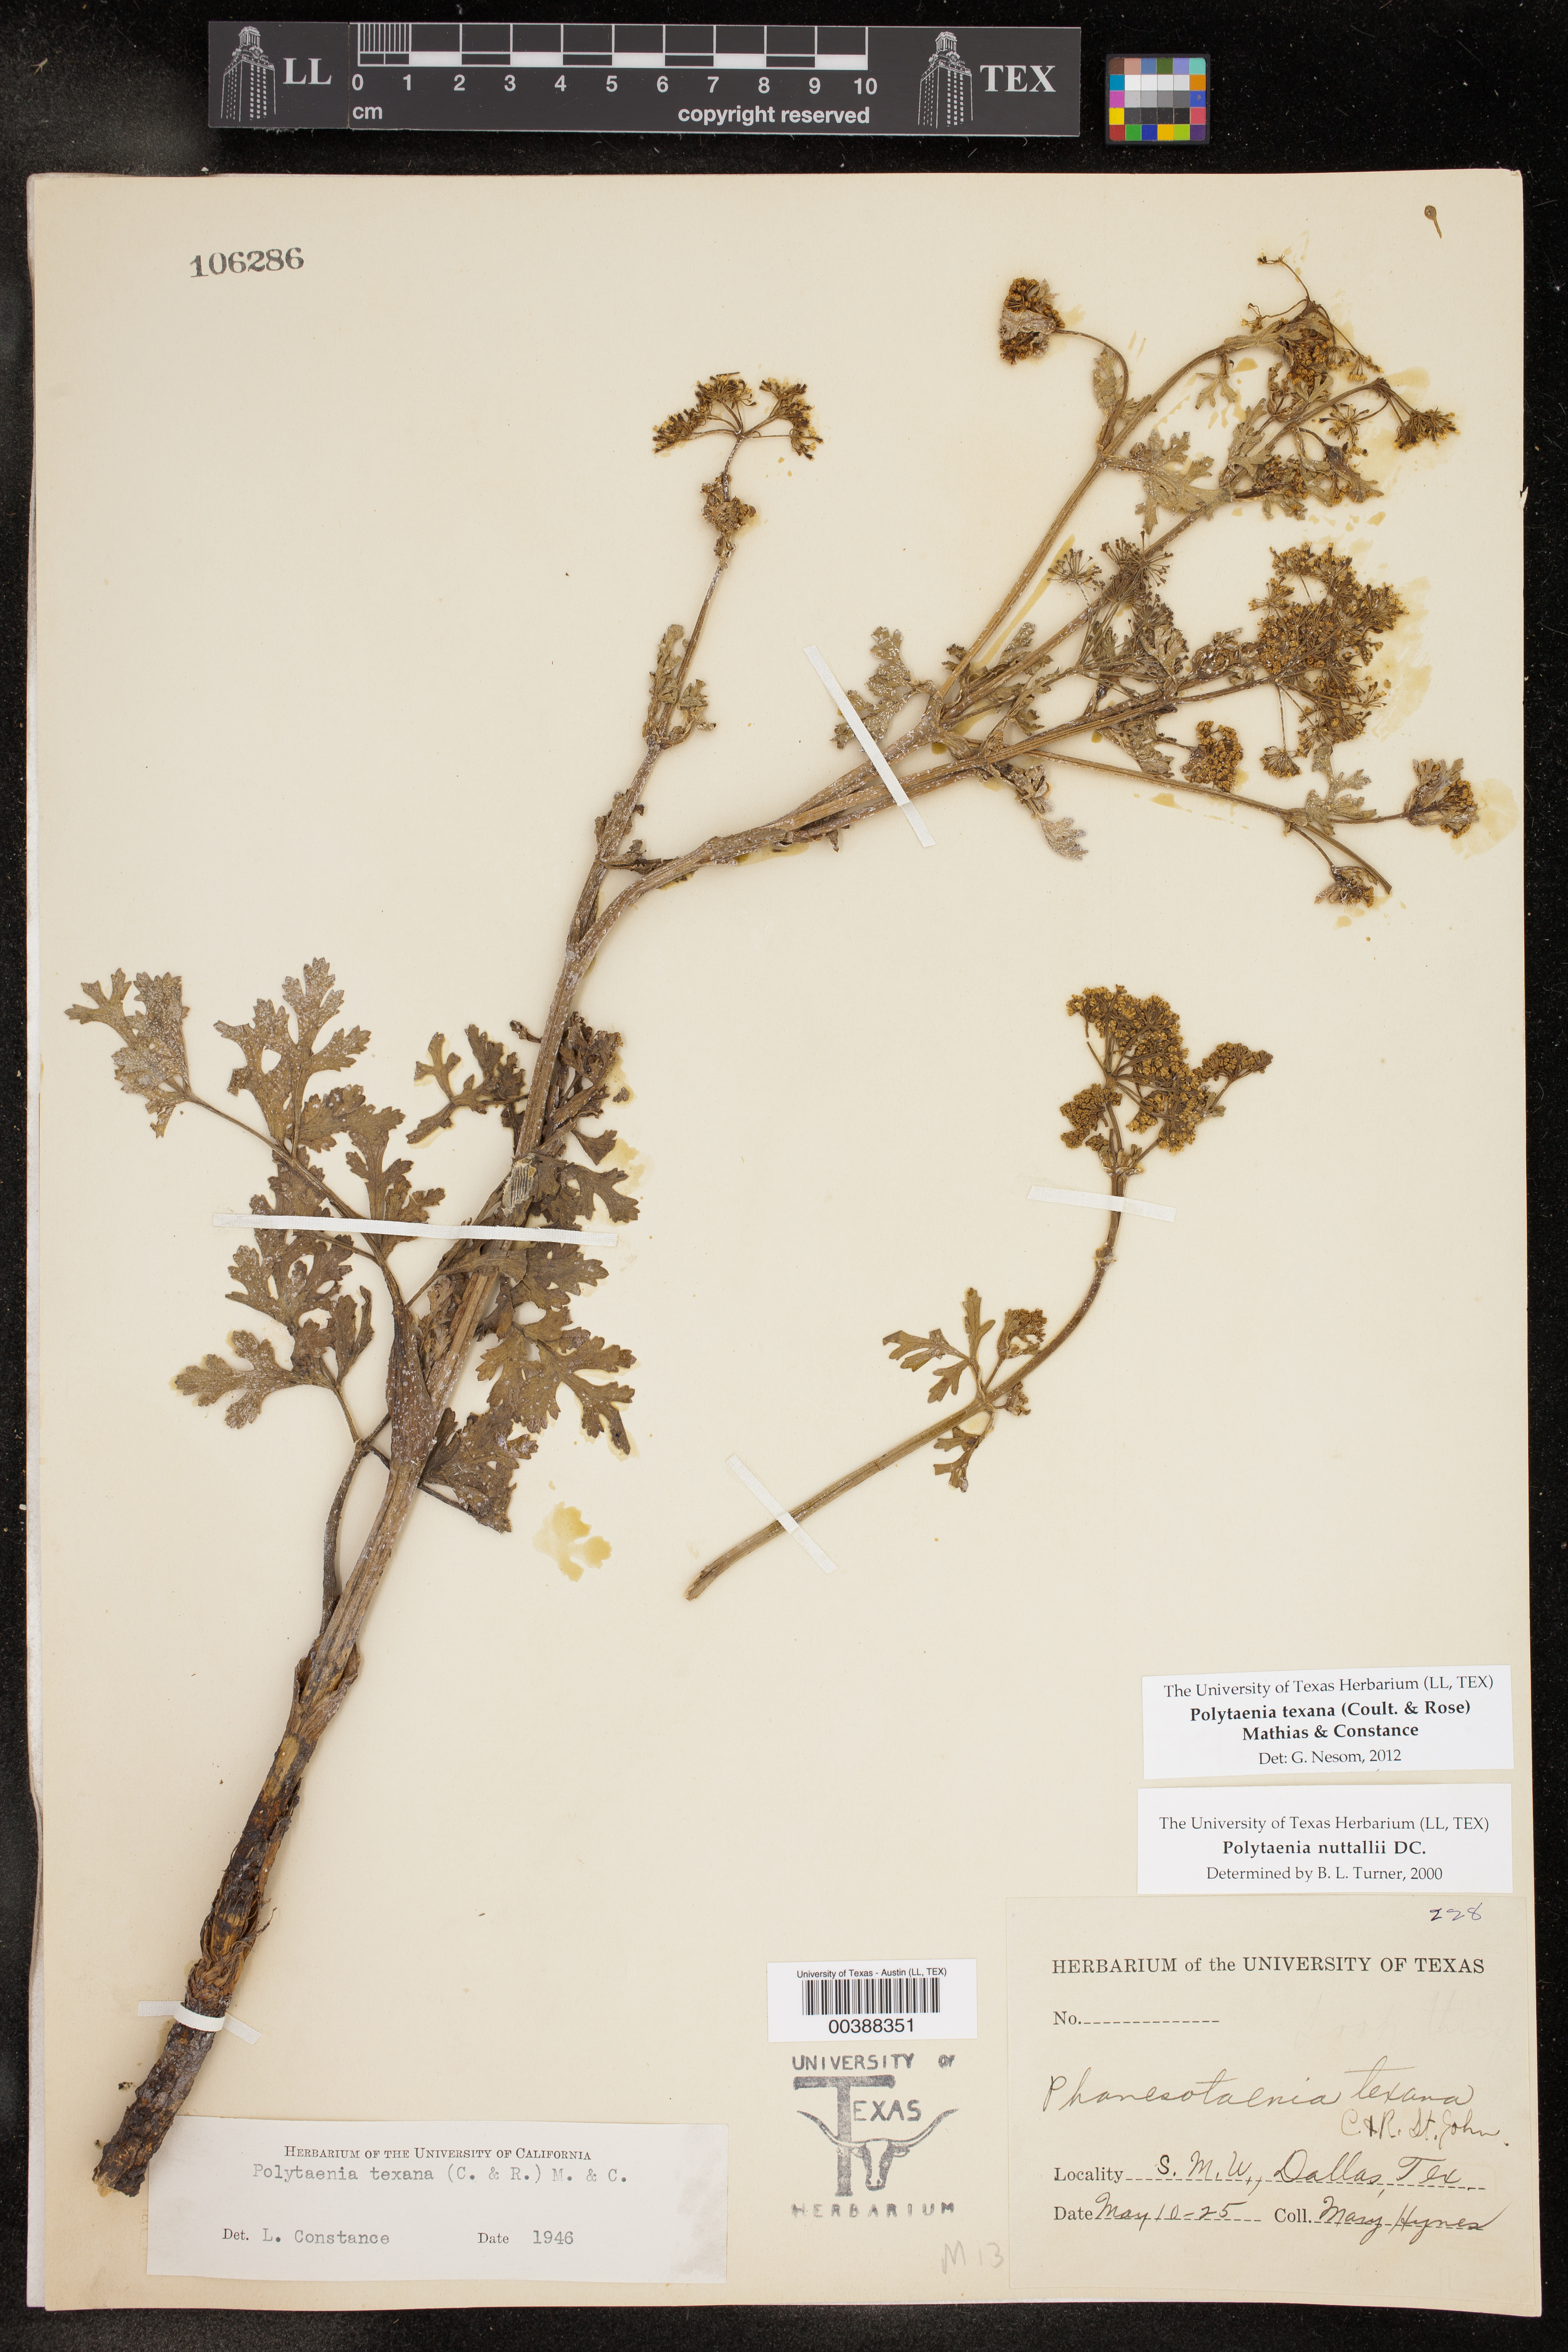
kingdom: Plantae
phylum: Tracheophyta
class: Magnoliopsida
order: Apiales
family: Apiaceae
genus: Polytaenia
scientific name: Polytaenia texana
